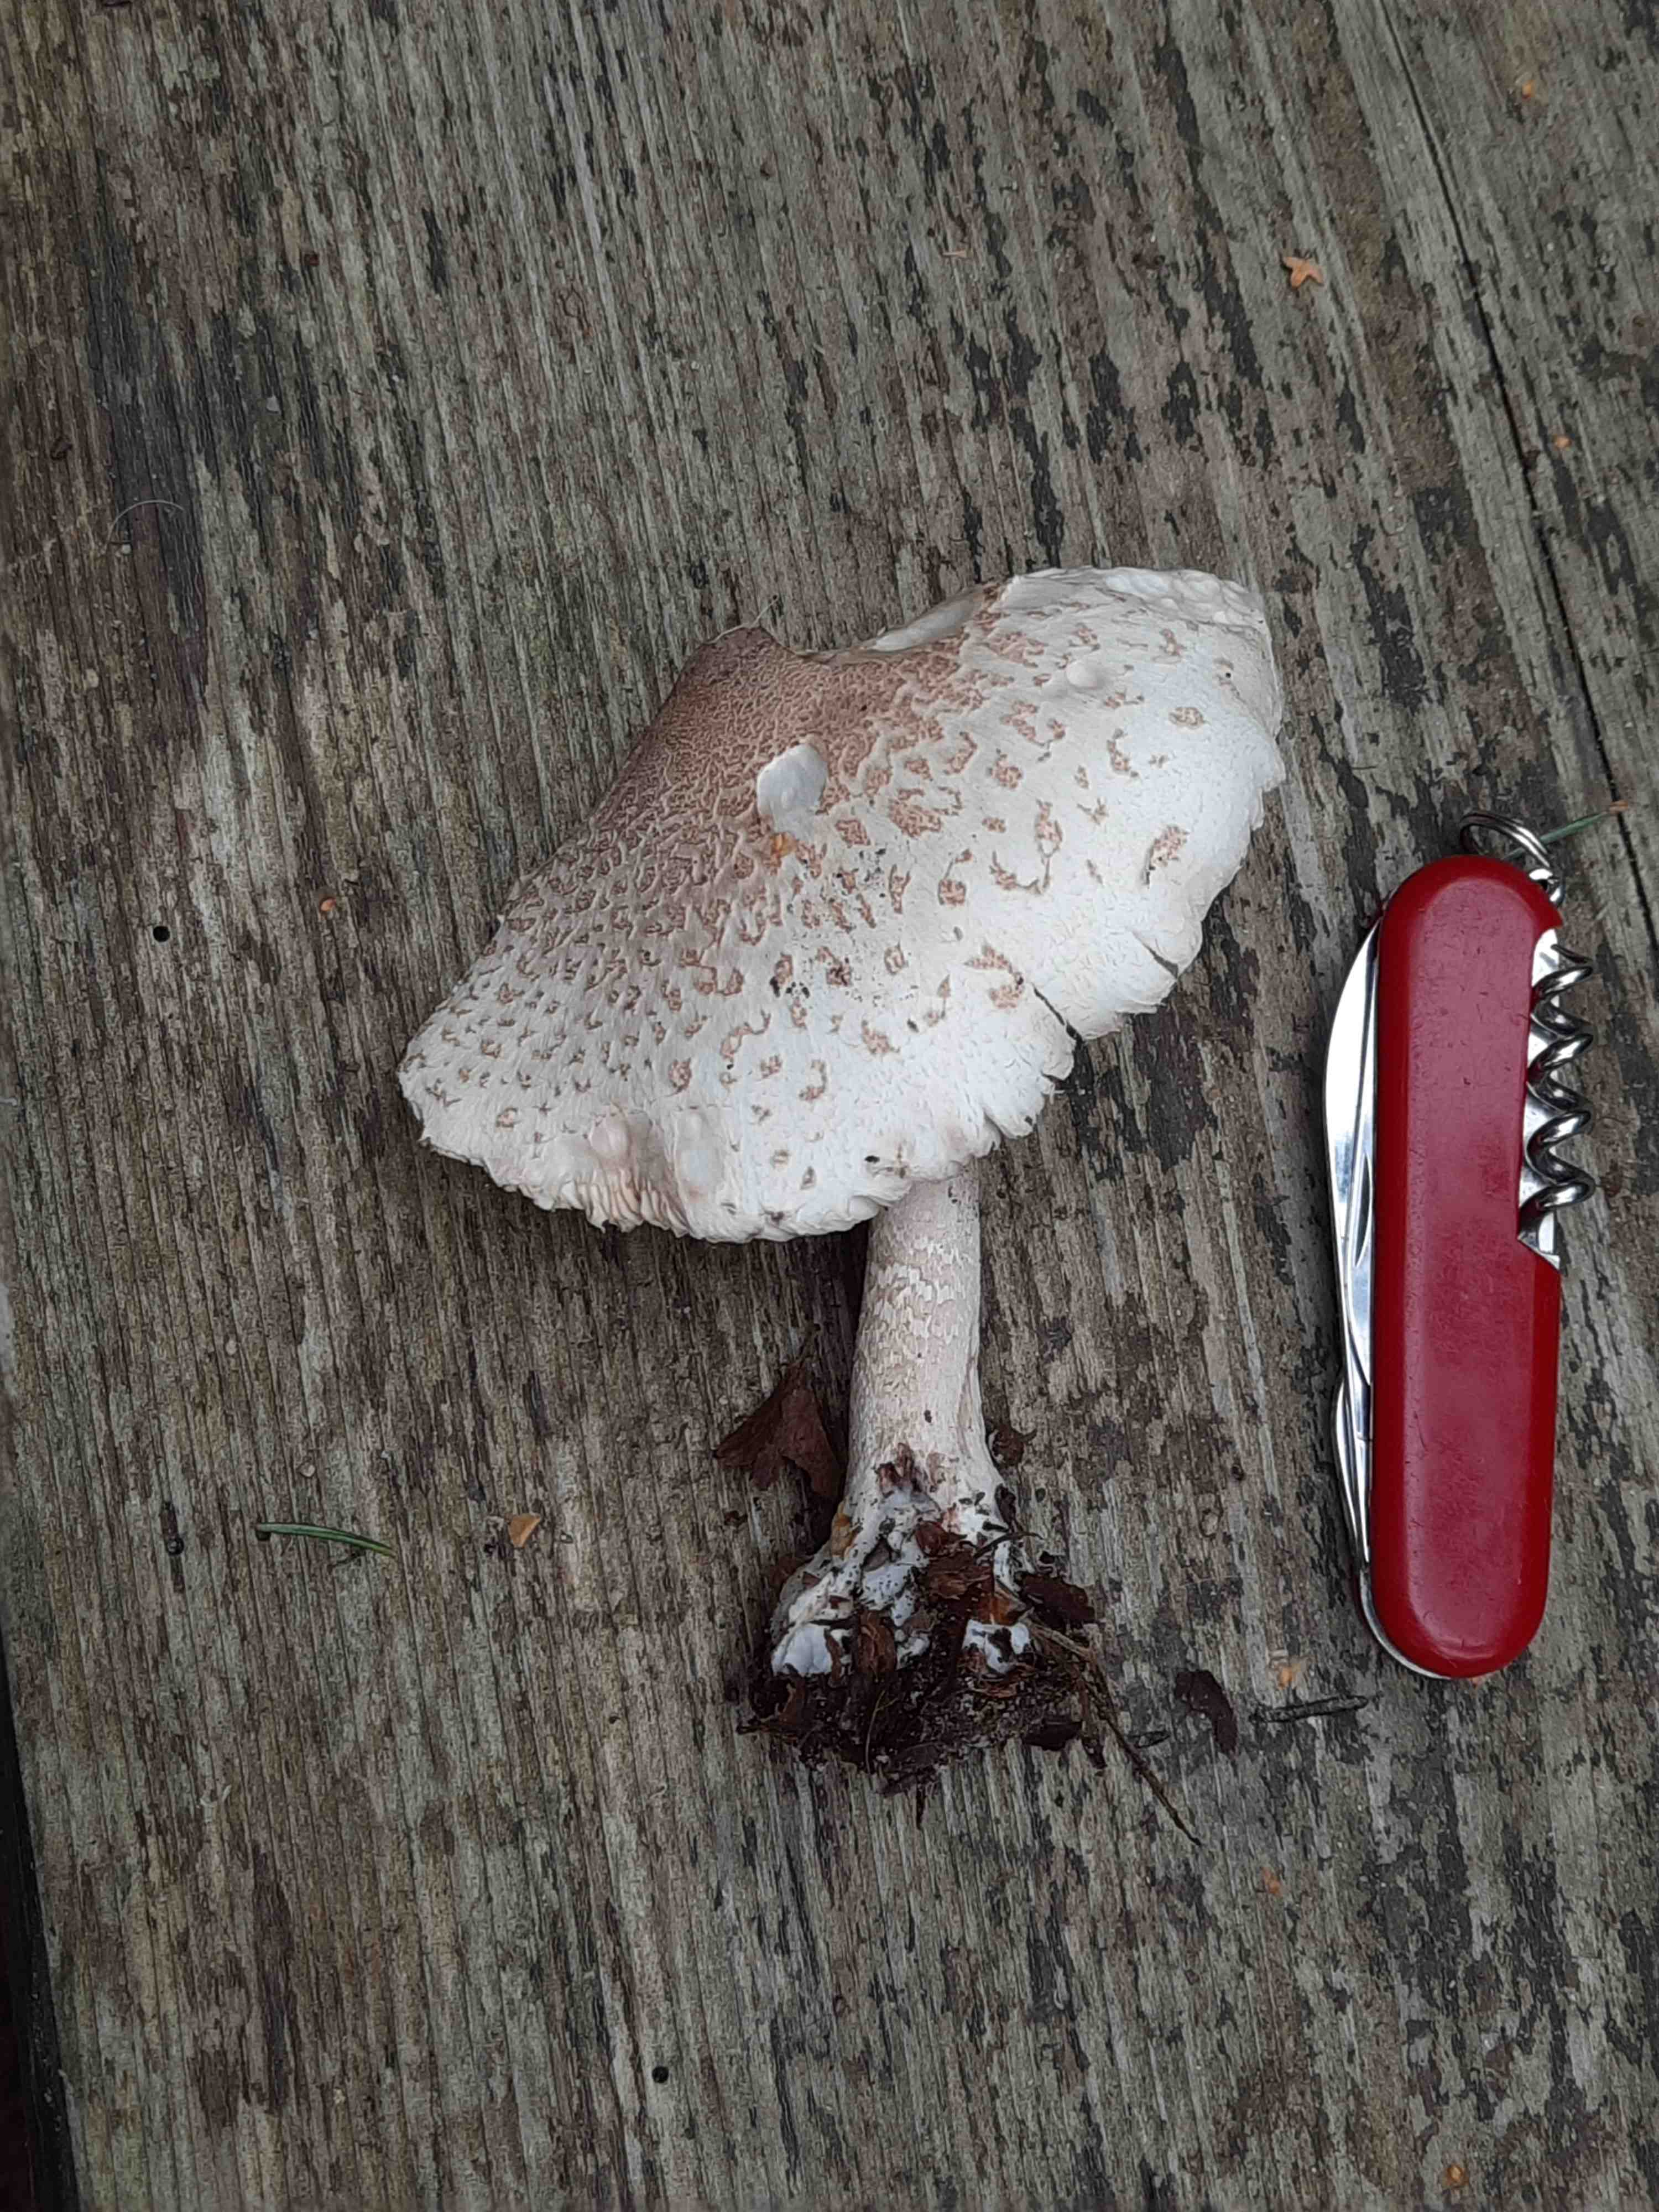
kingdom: Fungi
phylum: Basidiomycota
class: Agaricomycetes
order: Agaricales
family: Agaricaceae
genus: Macrolepiota
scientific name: Macrolepiota mastoidea
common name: puklet kæmpeparasolhat
